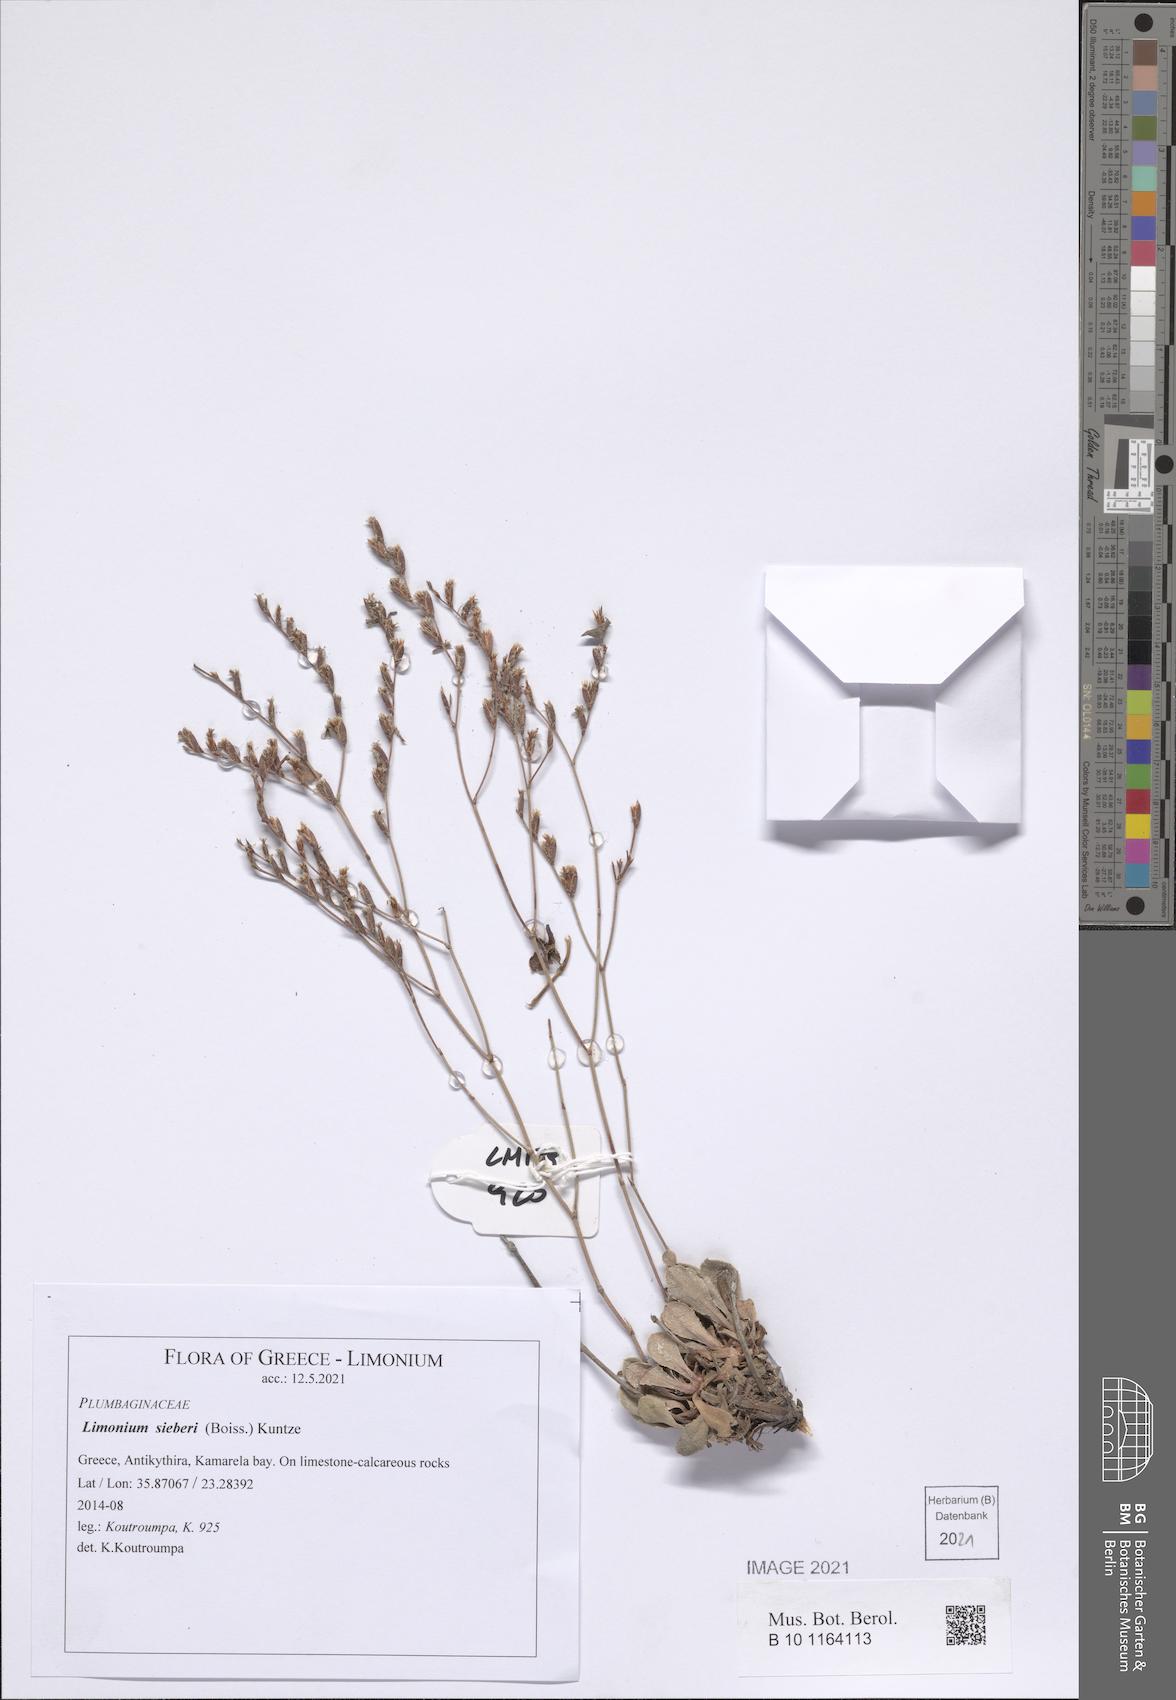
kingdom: Plantae
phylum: Tracheophyta
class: Magnoliopsida
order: Caryophyllales
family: Plumbaginaceae
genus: Limonium
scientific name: Limonium sieberi
